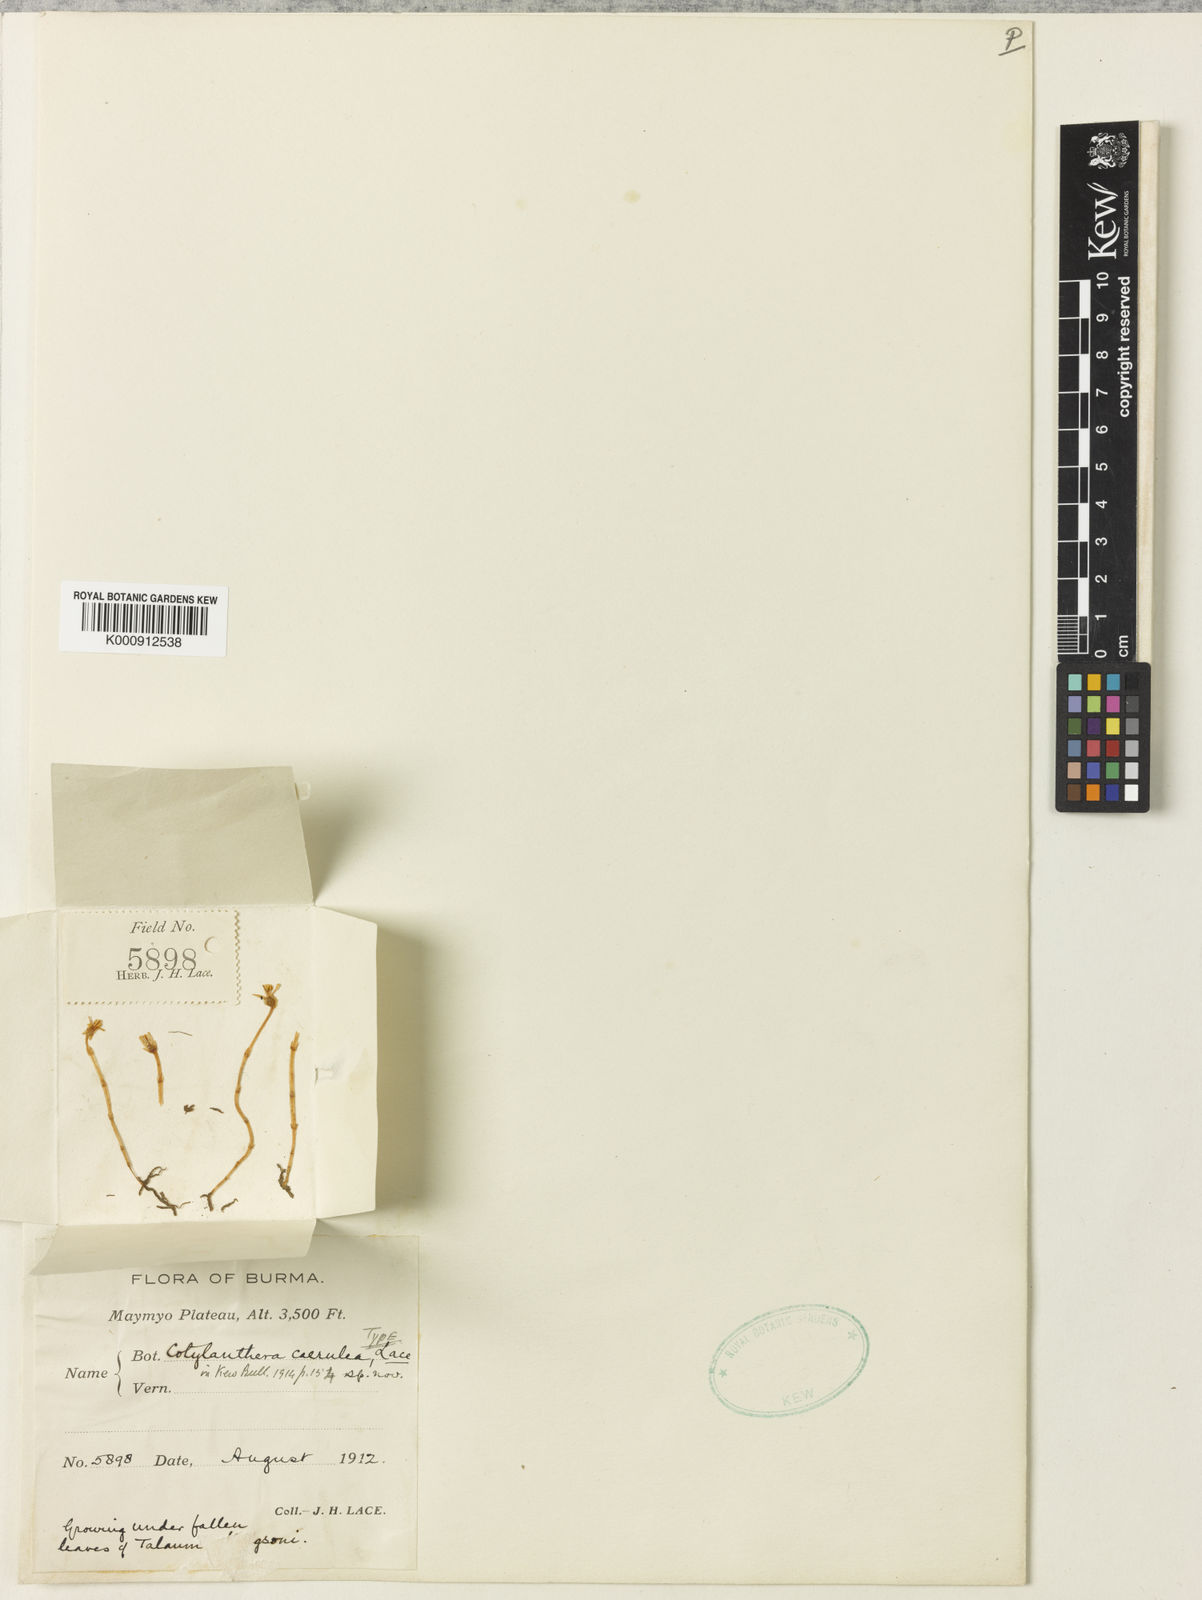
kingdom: Plantae
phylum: Tracheophyta
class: Magnoliopsida
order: Gentianales
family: Gentianaceae
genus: Exacum
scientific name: Exacum nanum
